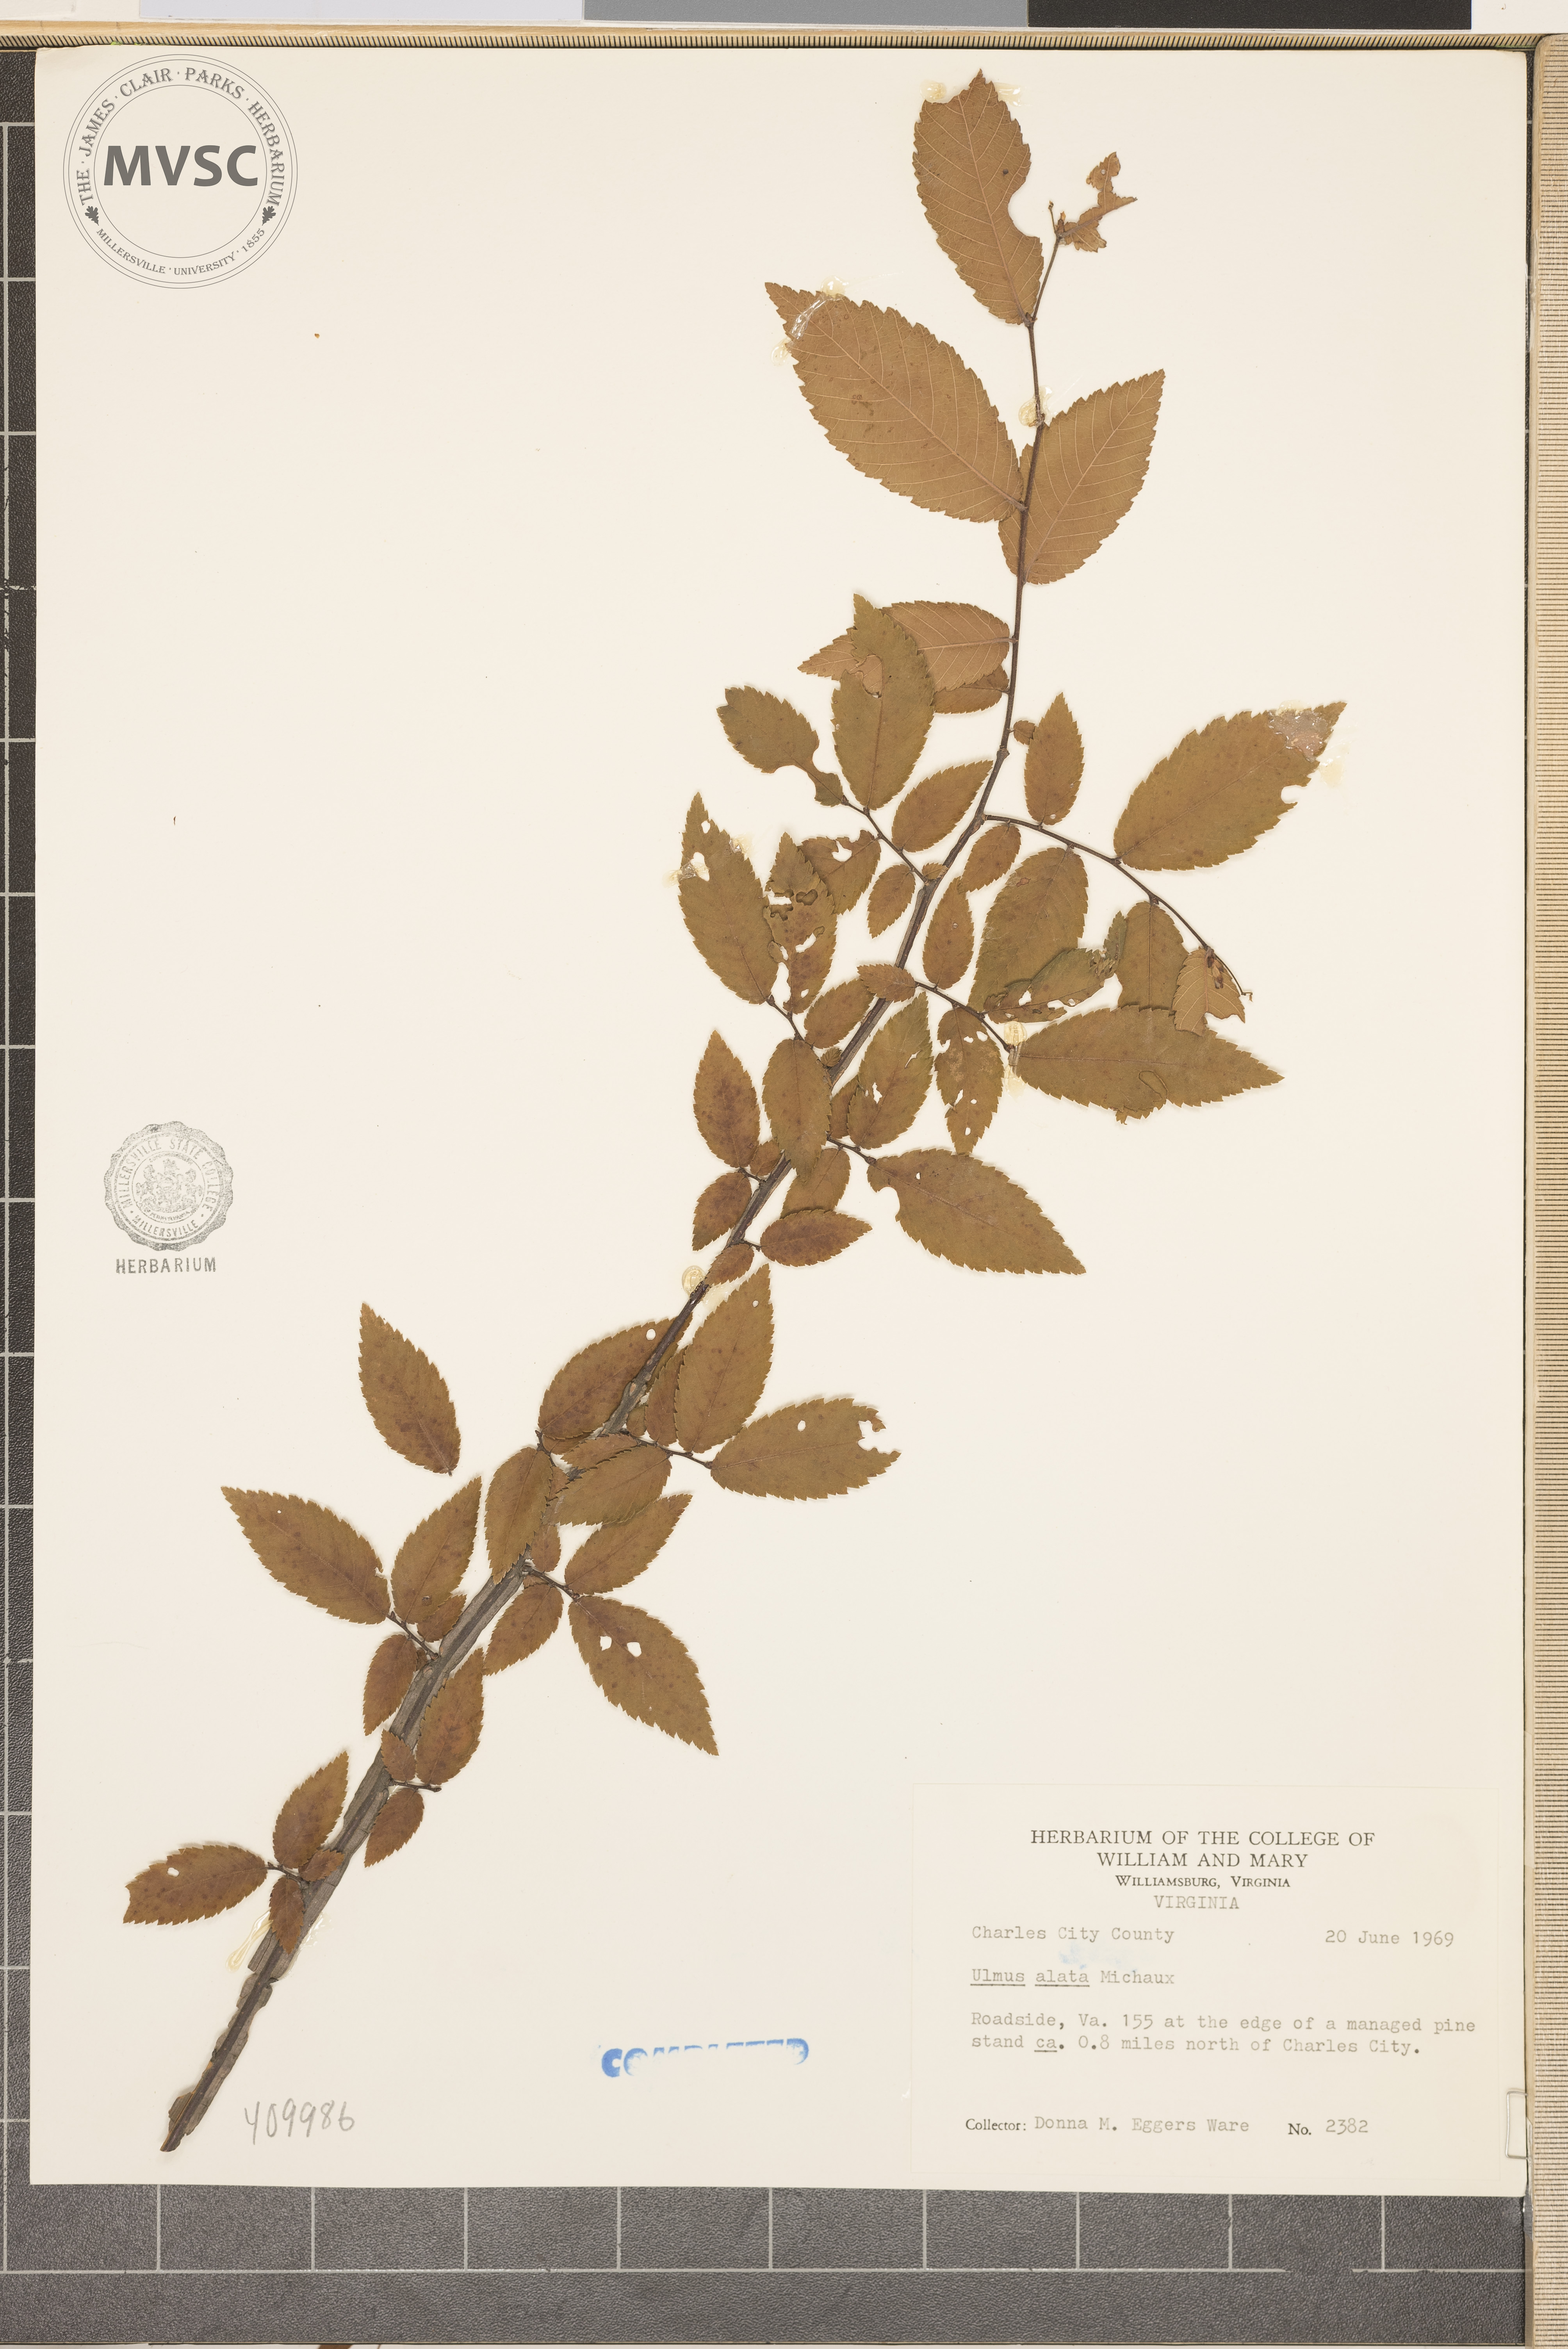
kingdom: Plantae
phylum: Tracheophyta
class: Magnoliopsida
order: Rosales
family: Ulmaceae
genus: Ulmus
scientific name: Ulmus alata
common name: winged elm
